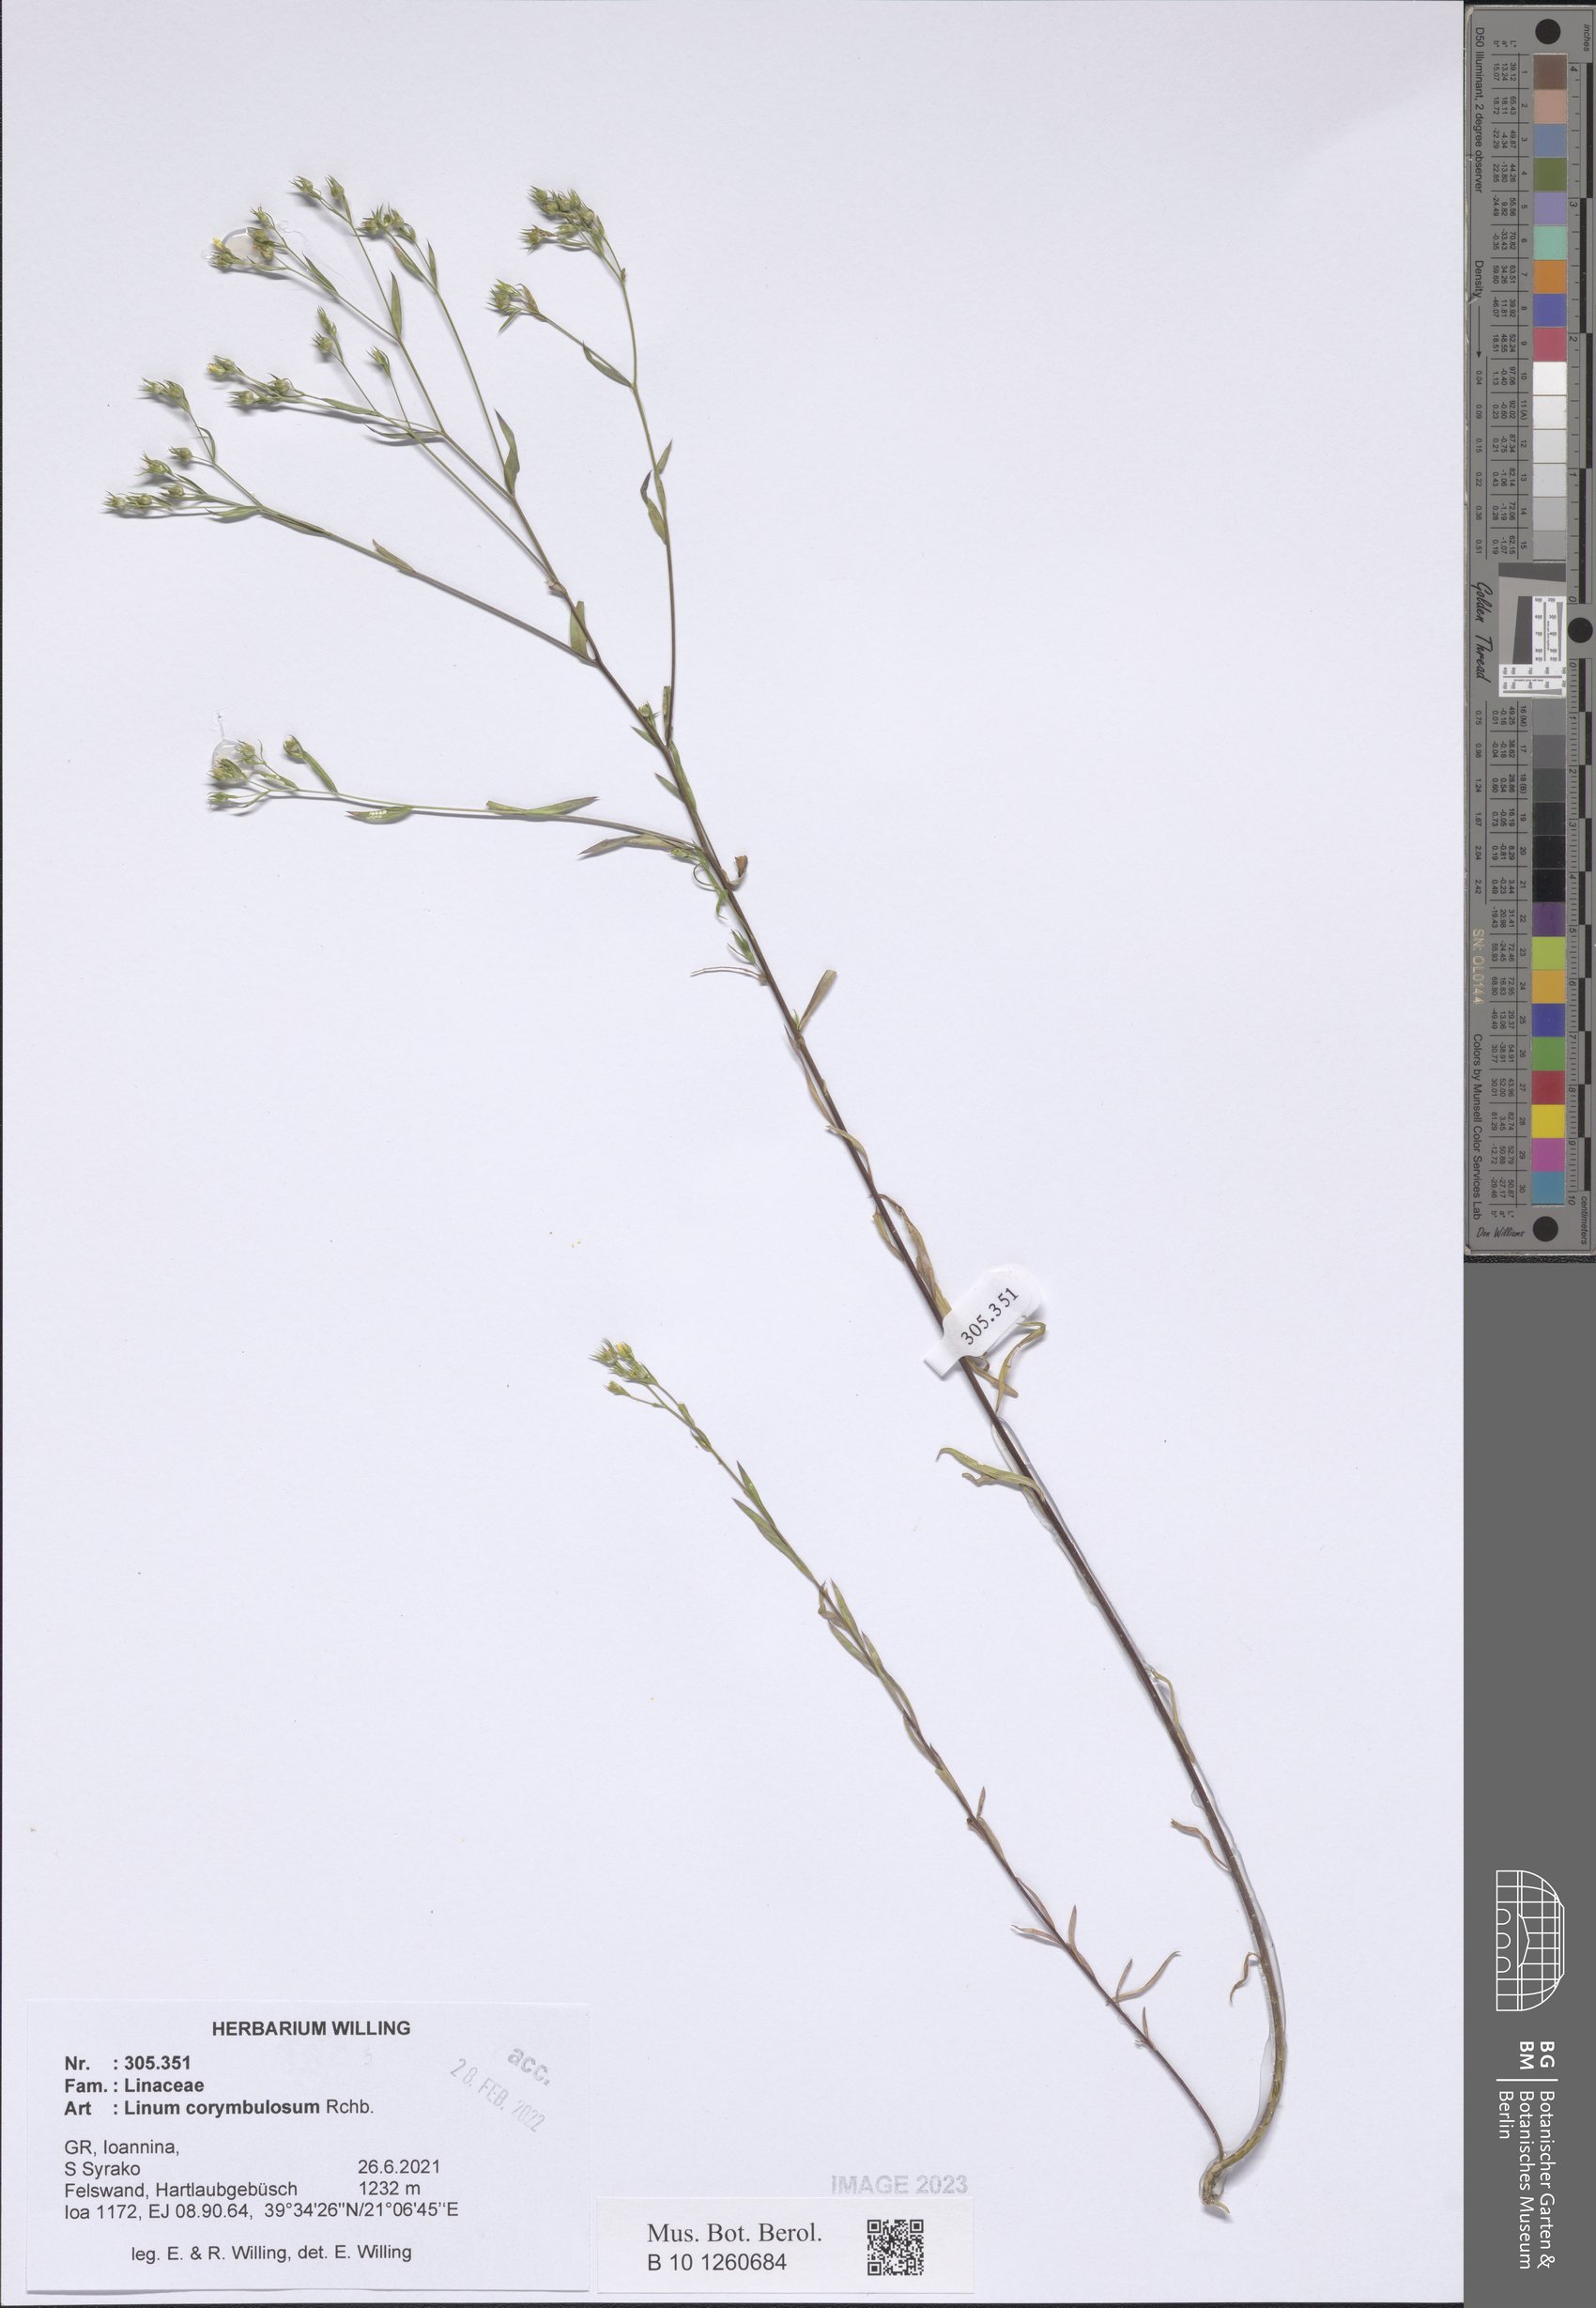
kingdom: Plantae
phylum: Tracheophyta
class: Magnoliopsida
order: Malpighiales
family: Linaceae
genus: Linum
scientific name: Linum corymbulosum
